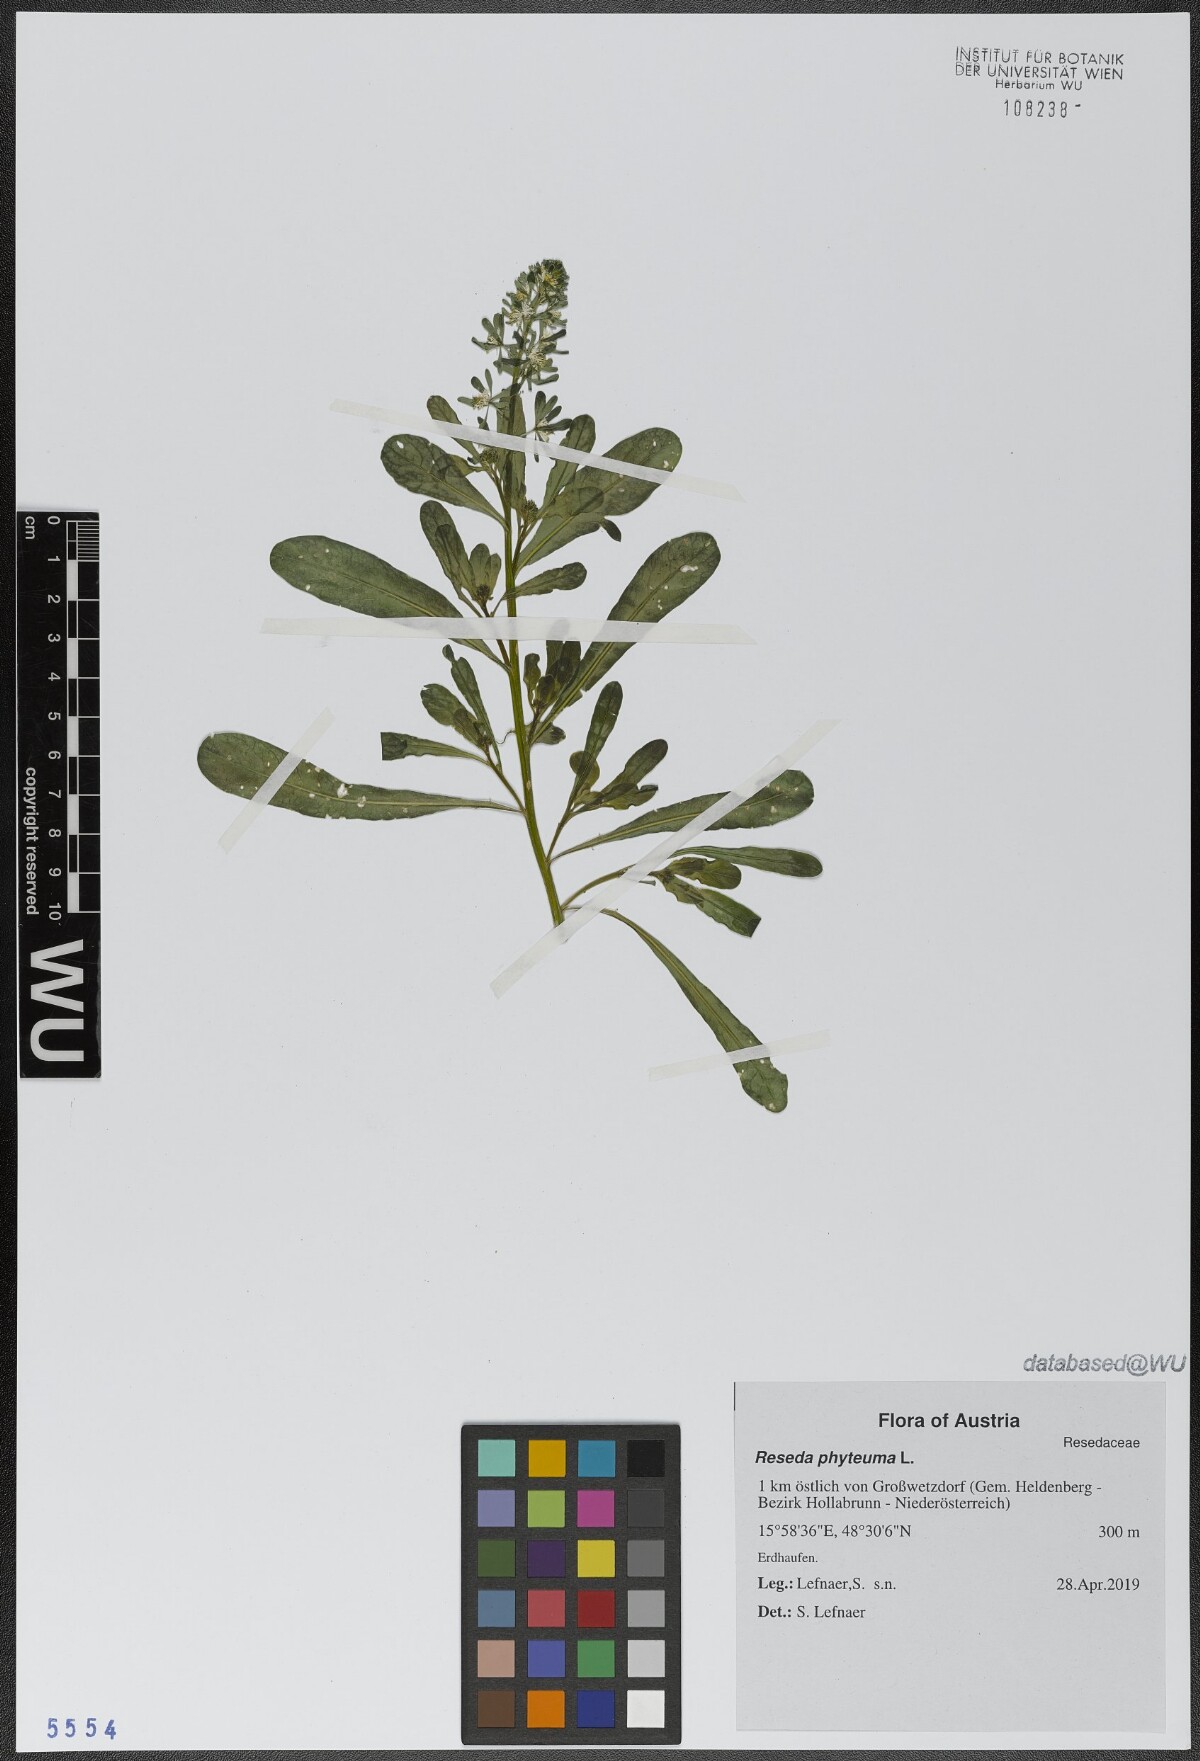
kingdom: Plantae
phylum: Tracheophyta
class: Magnoliopsida
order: Brassicales
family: Resedaceae
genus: Reseda
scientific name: Reseda phyteuma
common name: Corn mignonette
